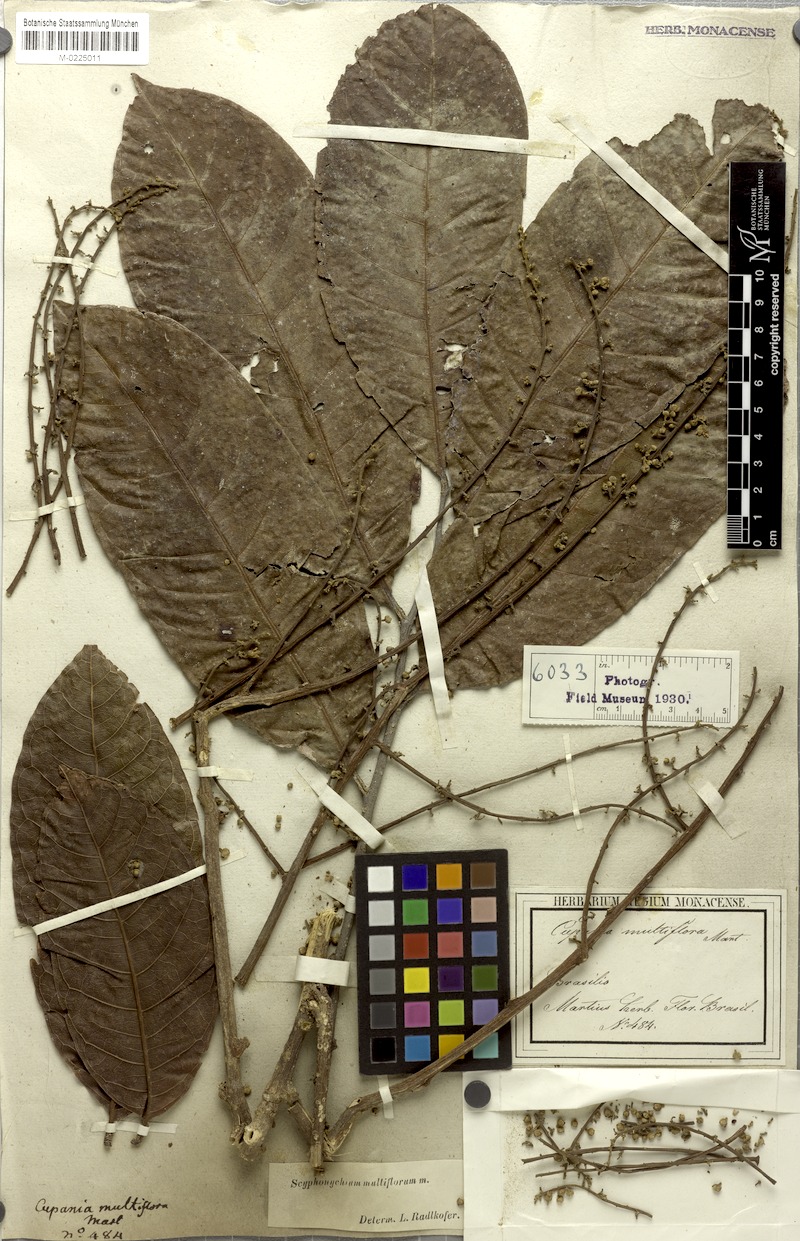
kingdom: Plantae
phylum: Tracheophyta
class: Magnoliopsida
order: Sapindales
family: Sapindaceae
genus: Cupania
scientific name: Cupania multiflora
